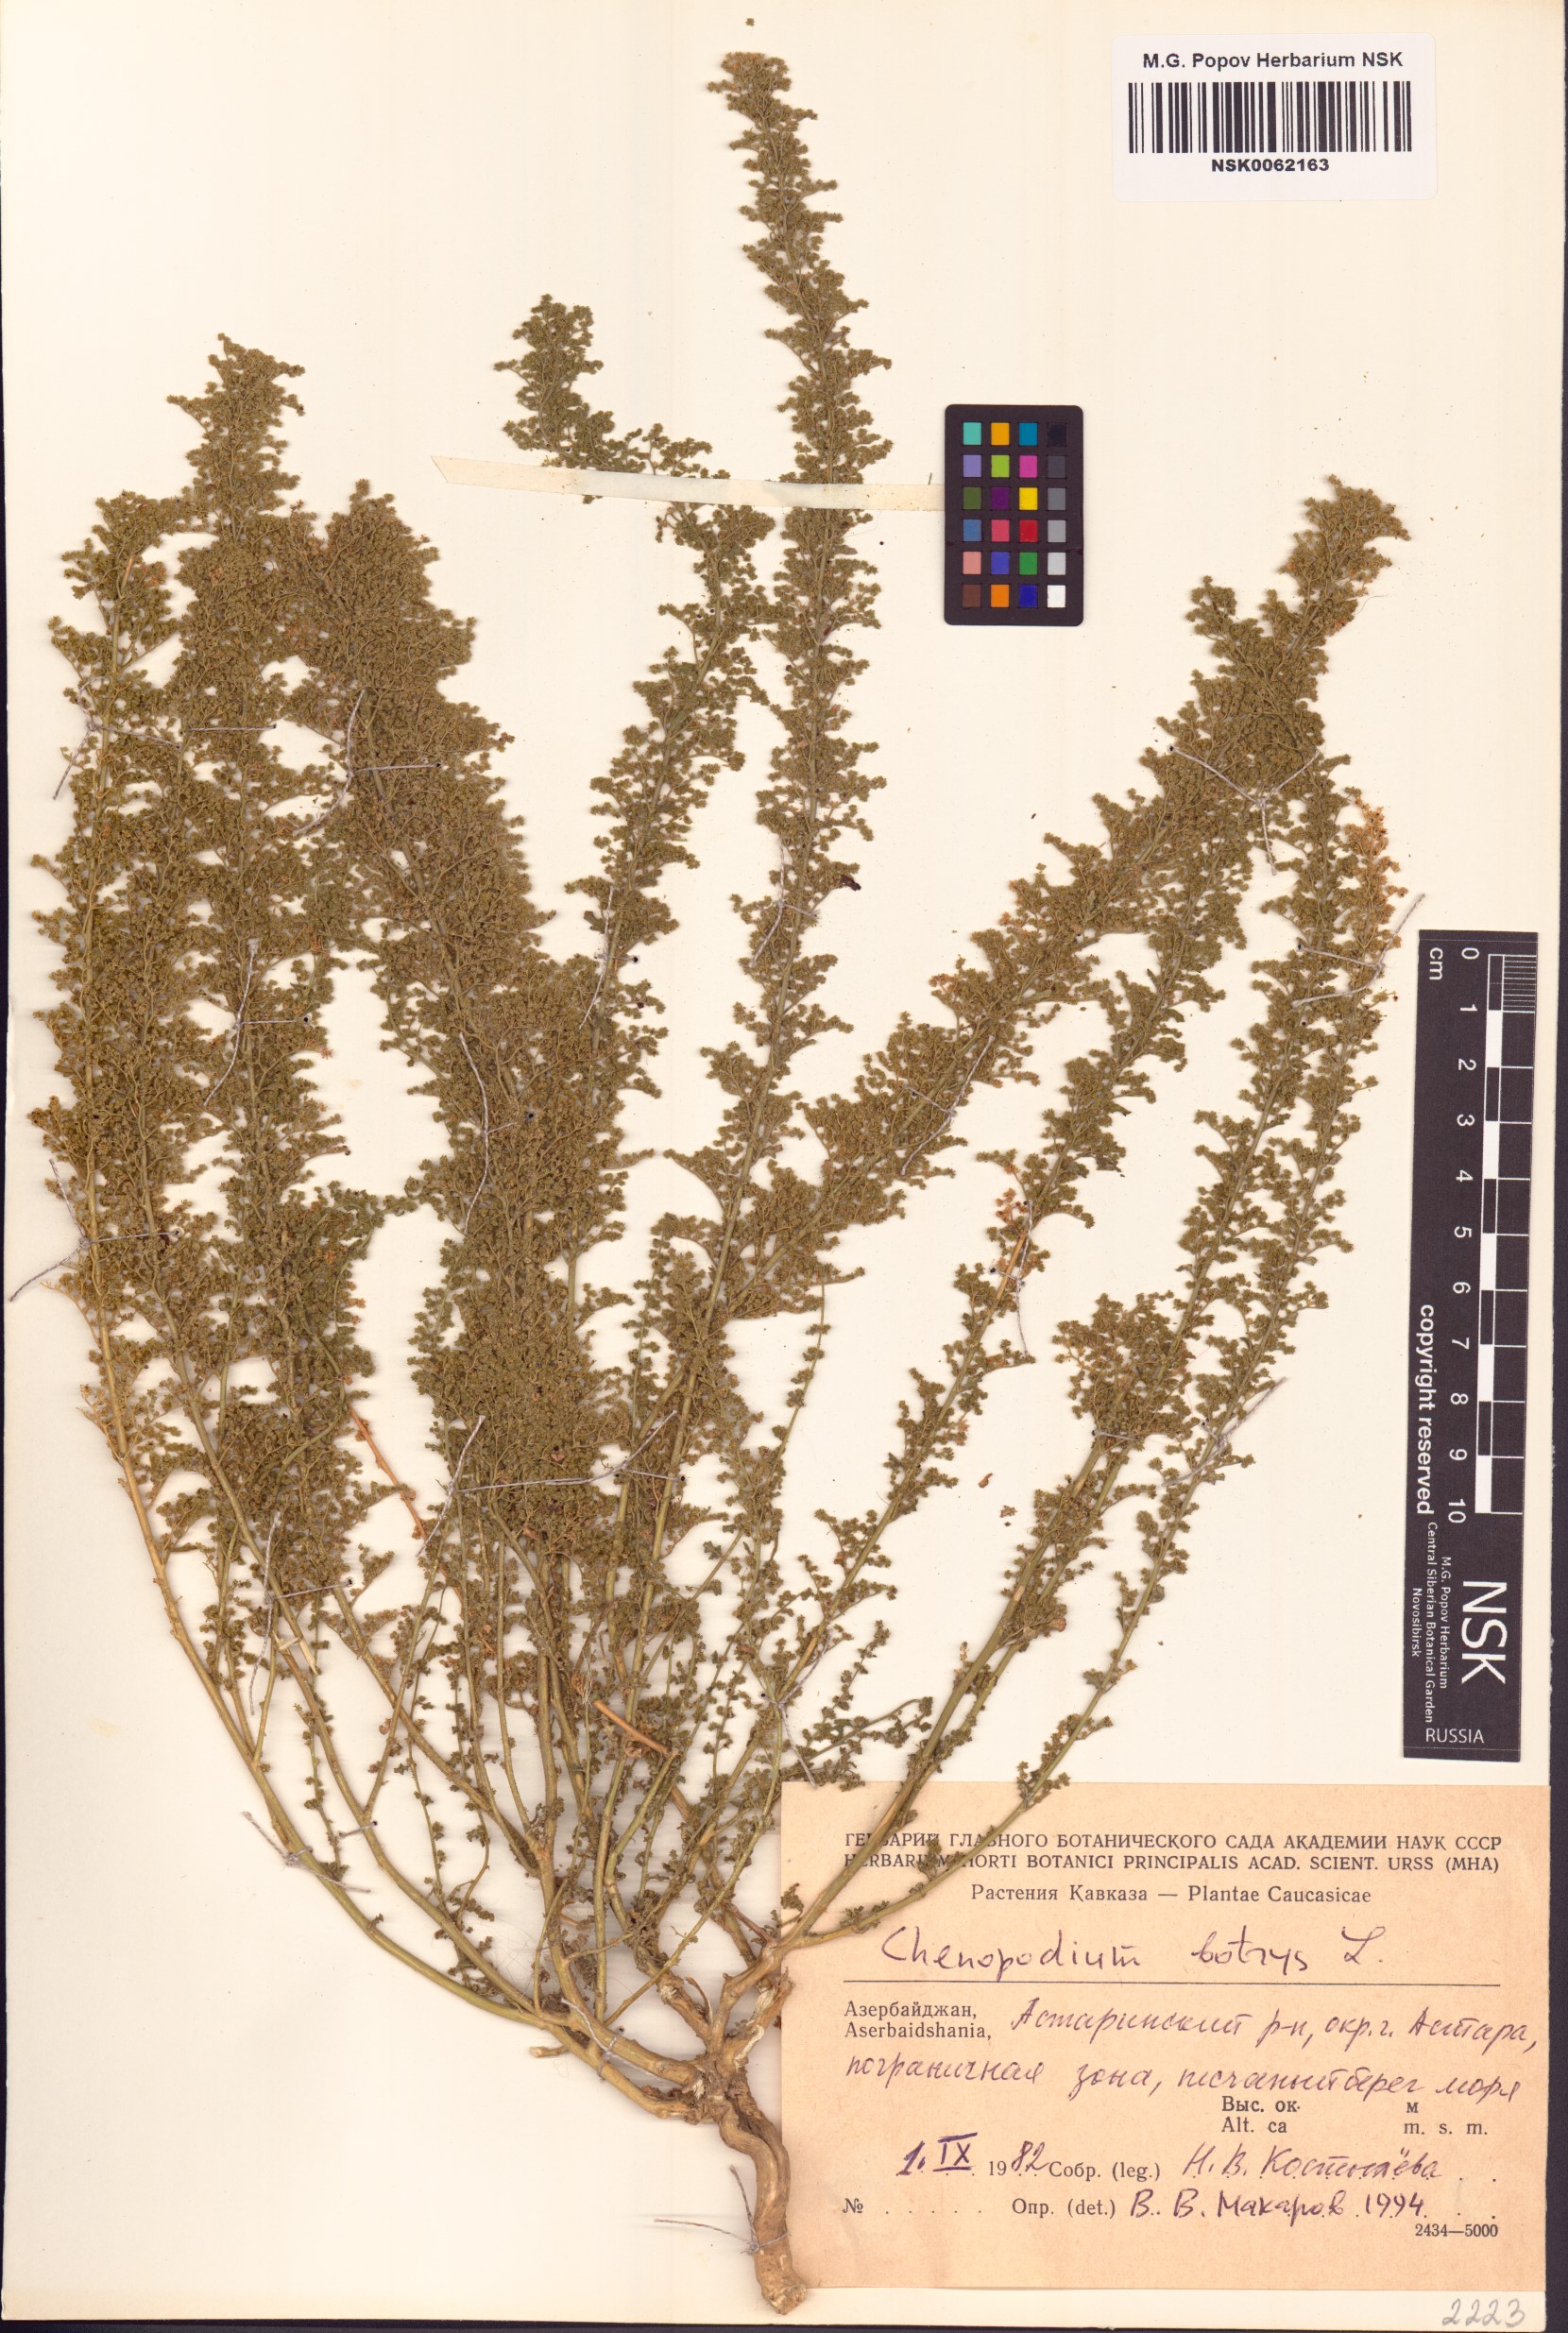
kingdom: Plantae
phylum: Tracheophyta
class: Magnoliopsida
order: Caryophyllales
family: Amaranthaceae
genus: Dysphania
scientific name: Dysphania botrys
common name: Feather-geranium
